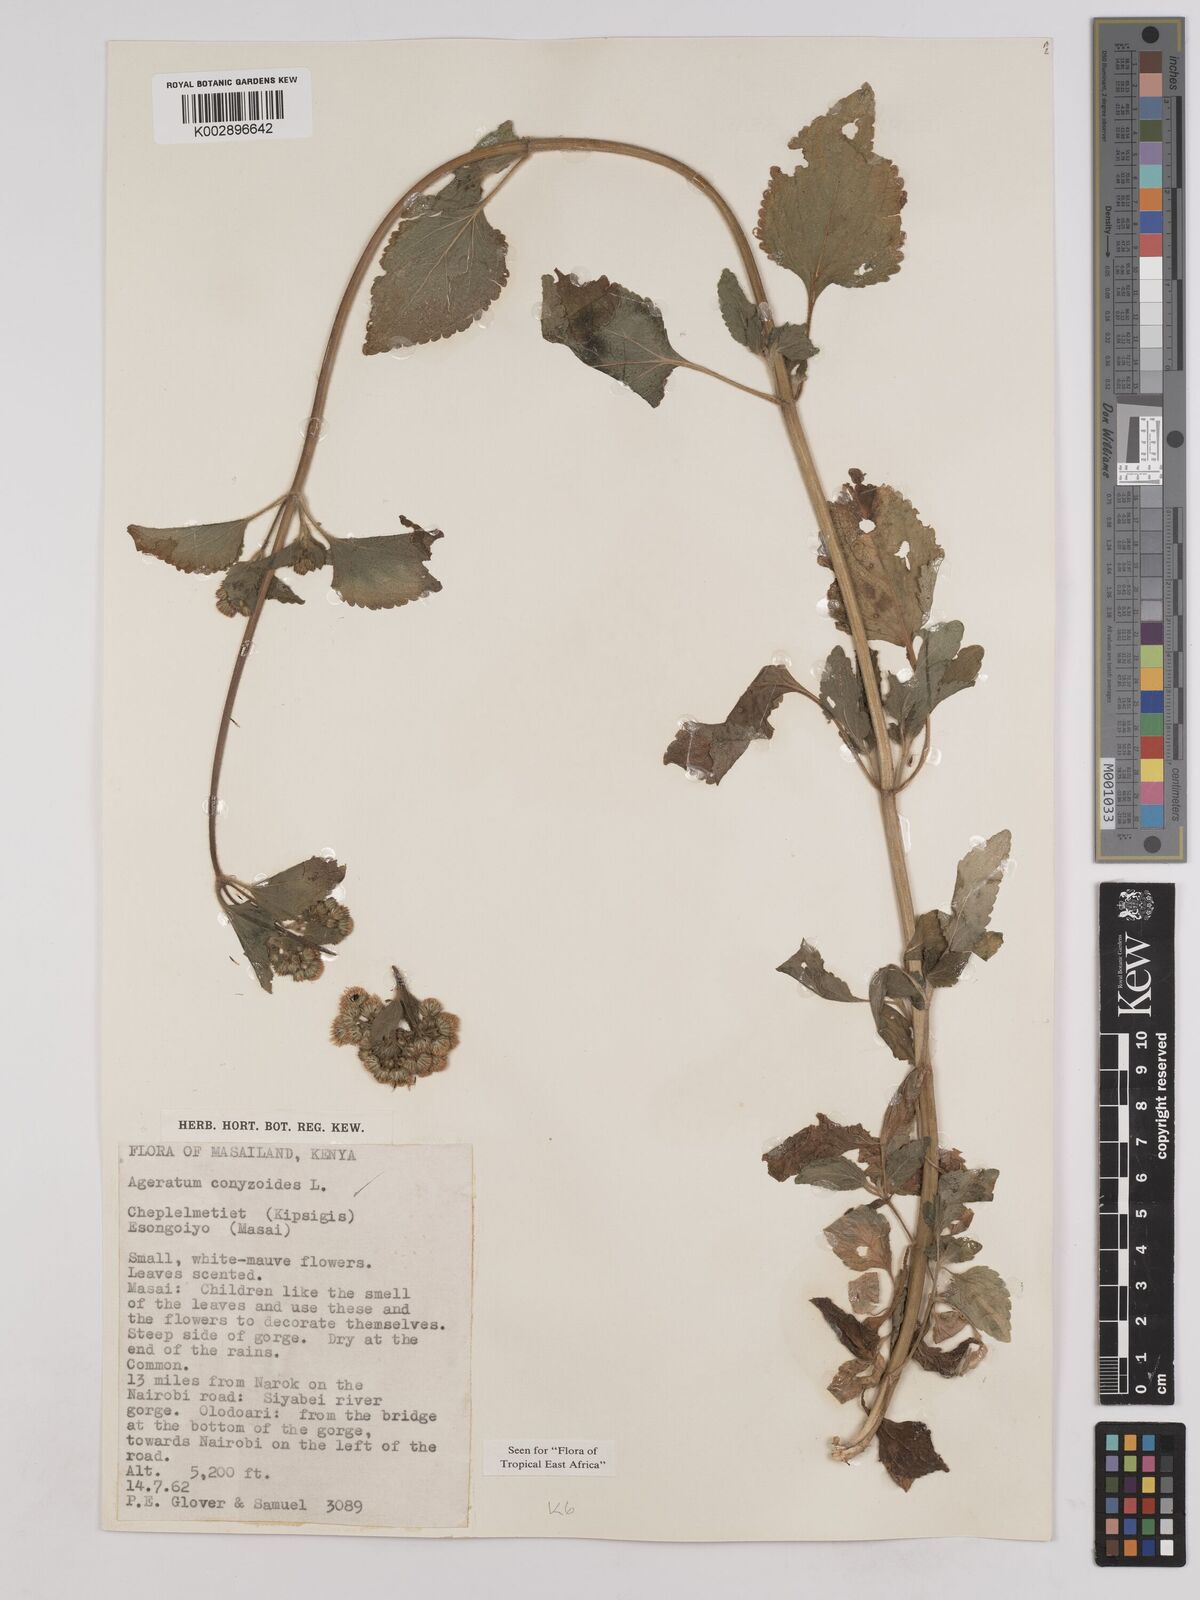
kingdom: Plantae
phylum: Tracheophyta
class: Magnoliopsida
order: Asterales
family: Asteraceae
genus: Ageratum
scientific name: Ageratum conyzoides
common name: Tropical whiteweed
